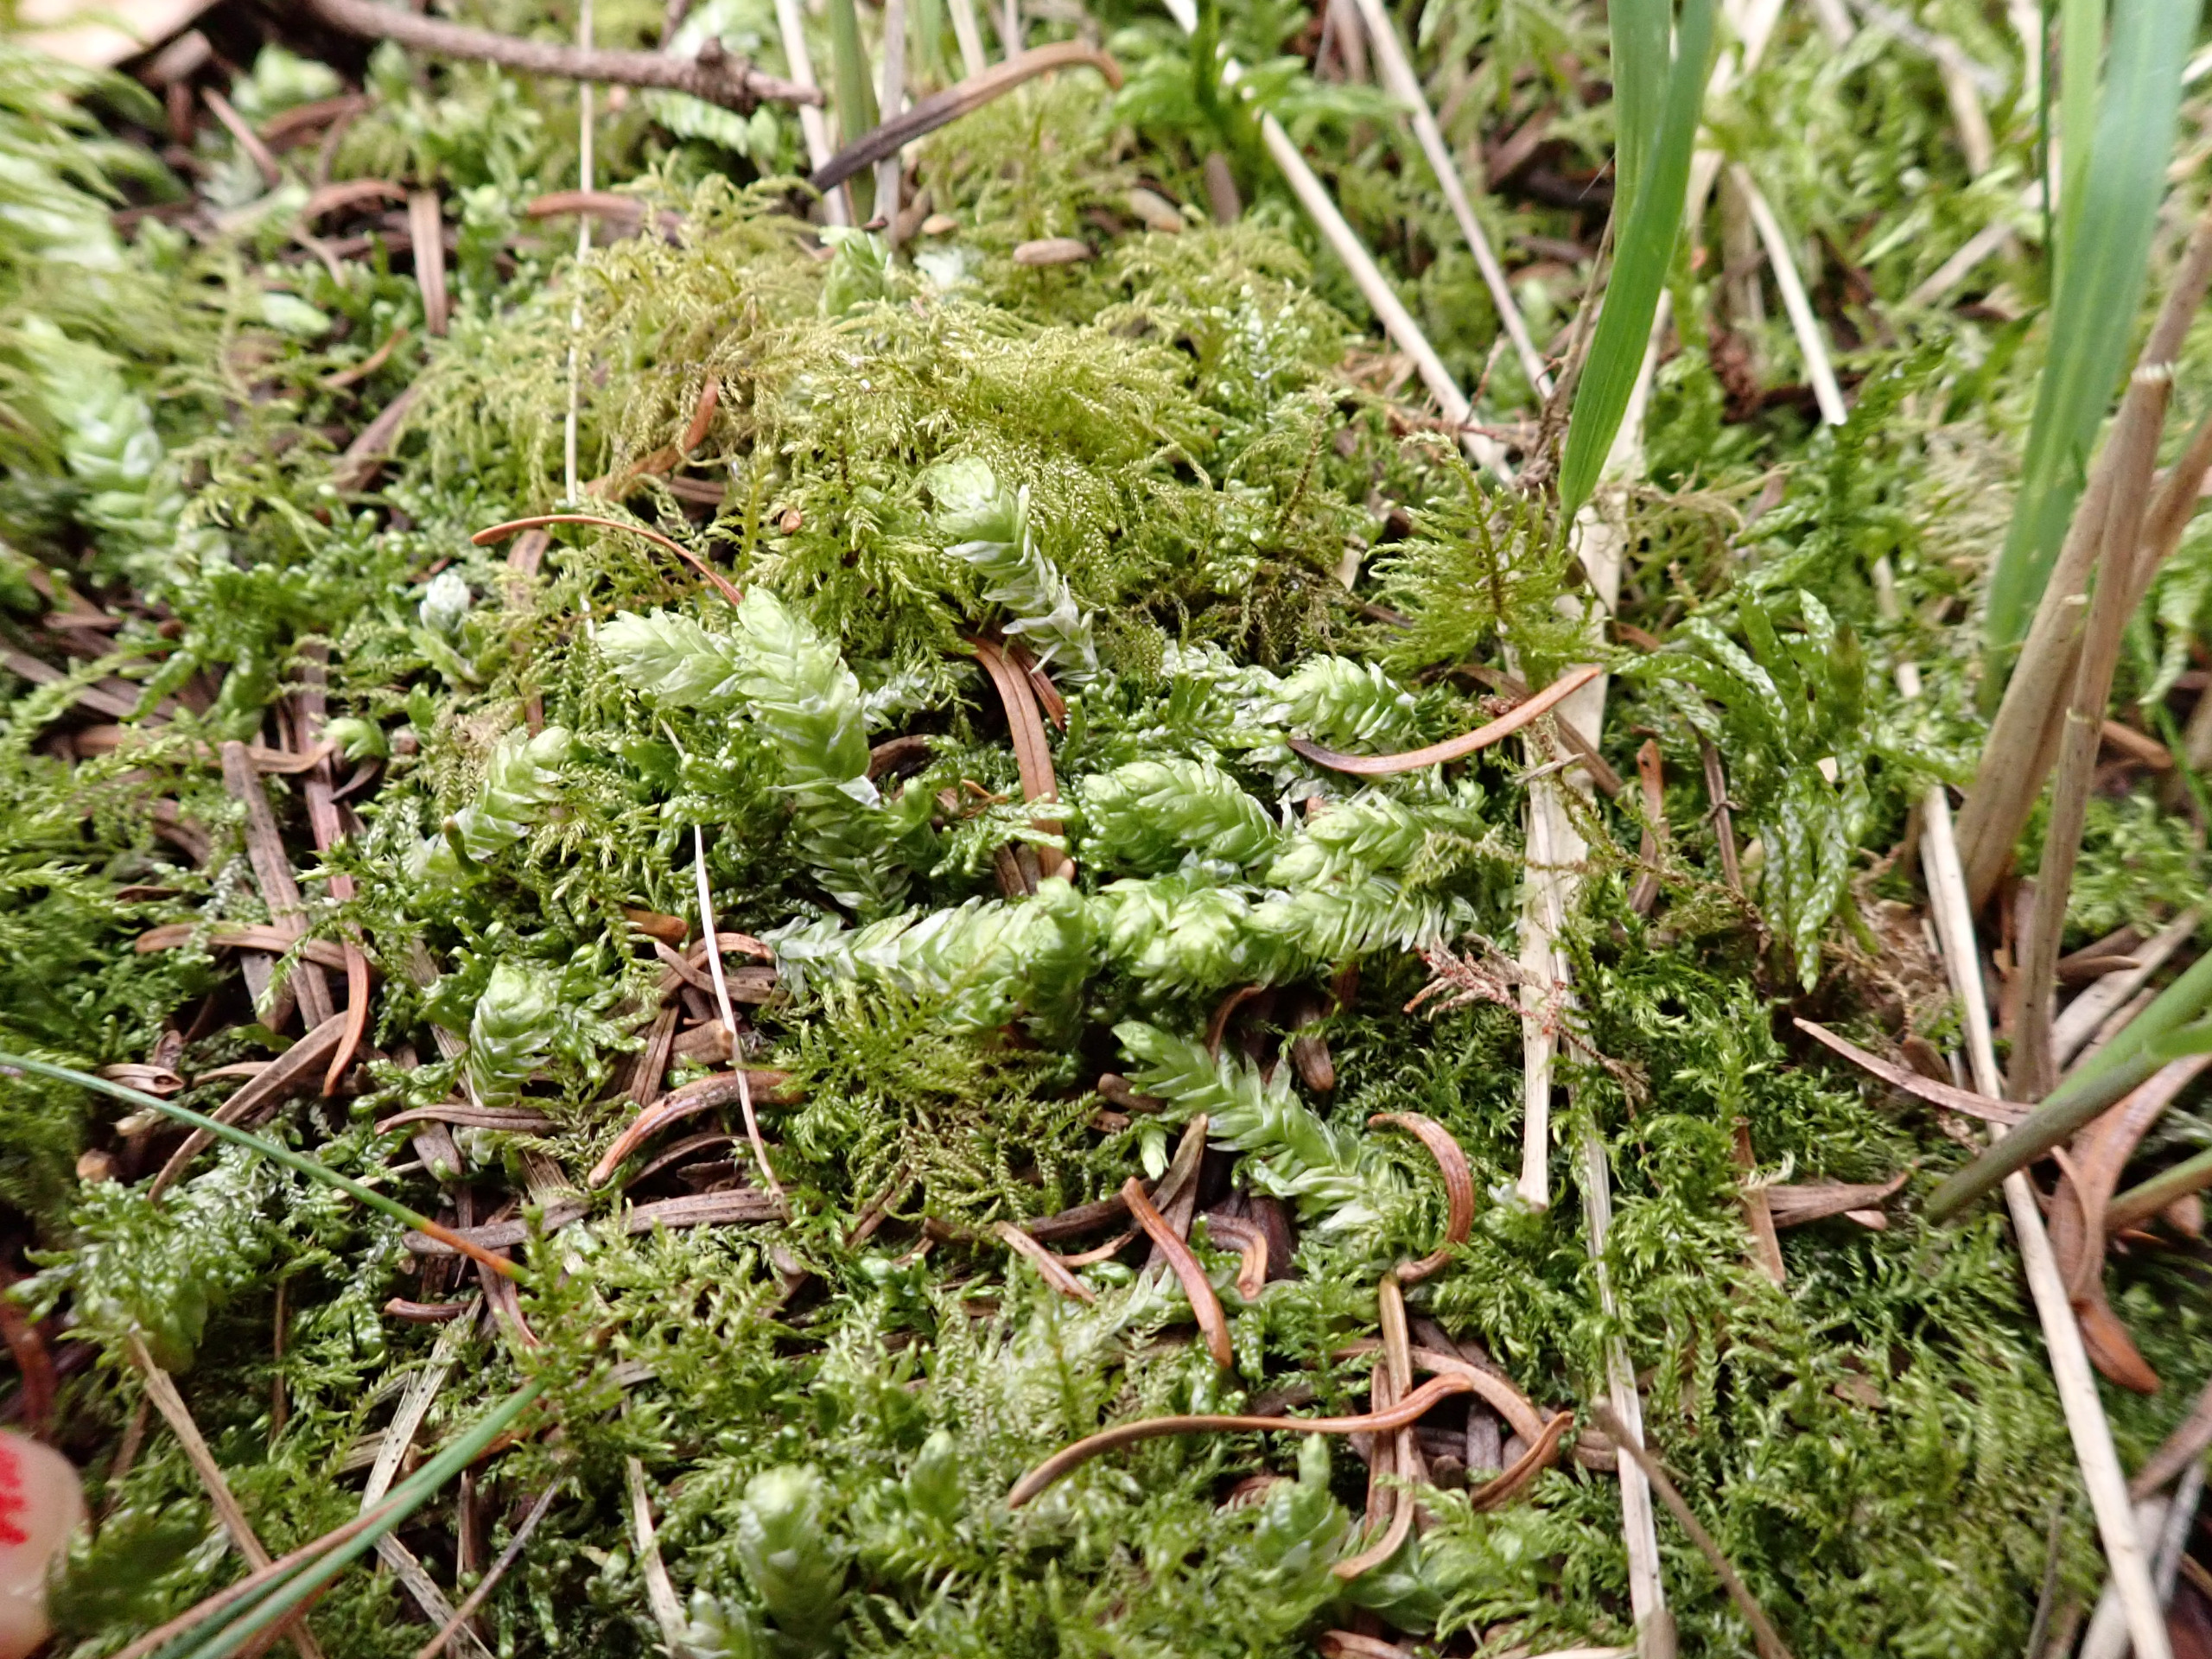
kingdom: Plantae
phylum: Bryophyta
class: Bryopsida
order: Hypnales
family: Plagiotheciaceae
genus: Plagiothecium
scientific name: Plagiothecium undulatum
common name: Bølget tæppemos
